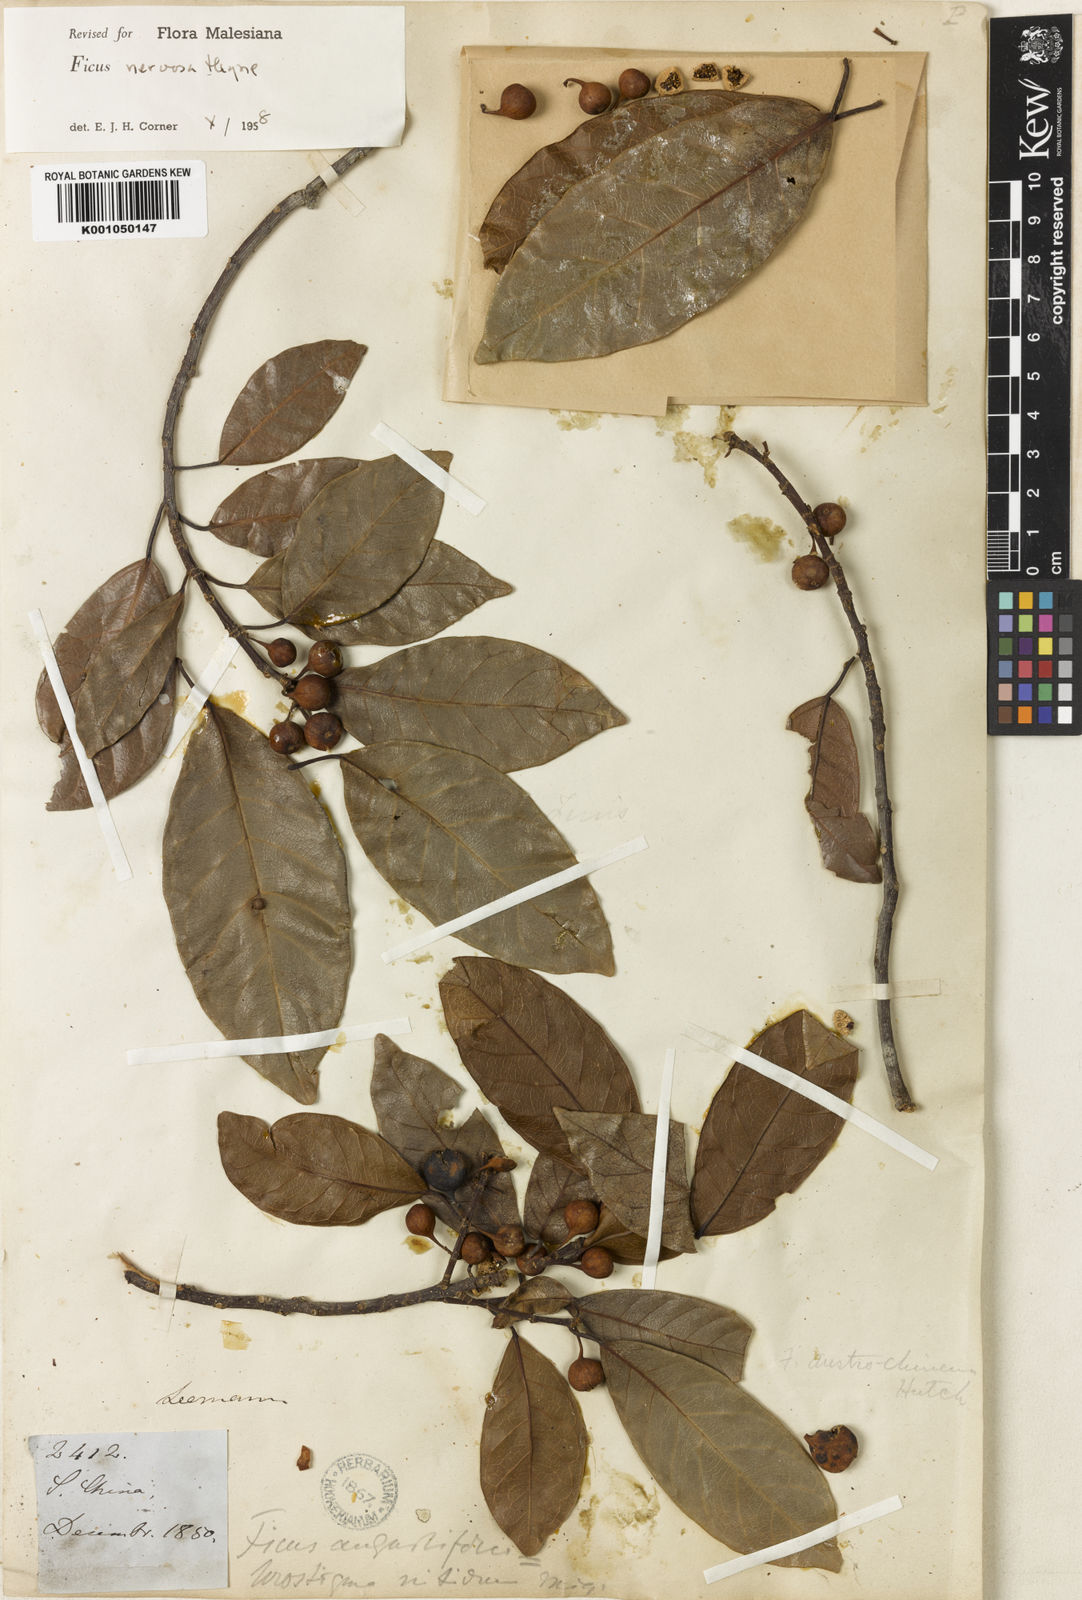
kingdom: Plantae
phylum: Tracheophyta
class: Magnoliopsida
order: Rosales
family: Moraceae
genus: Ficus
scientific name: Ficus nervosa
